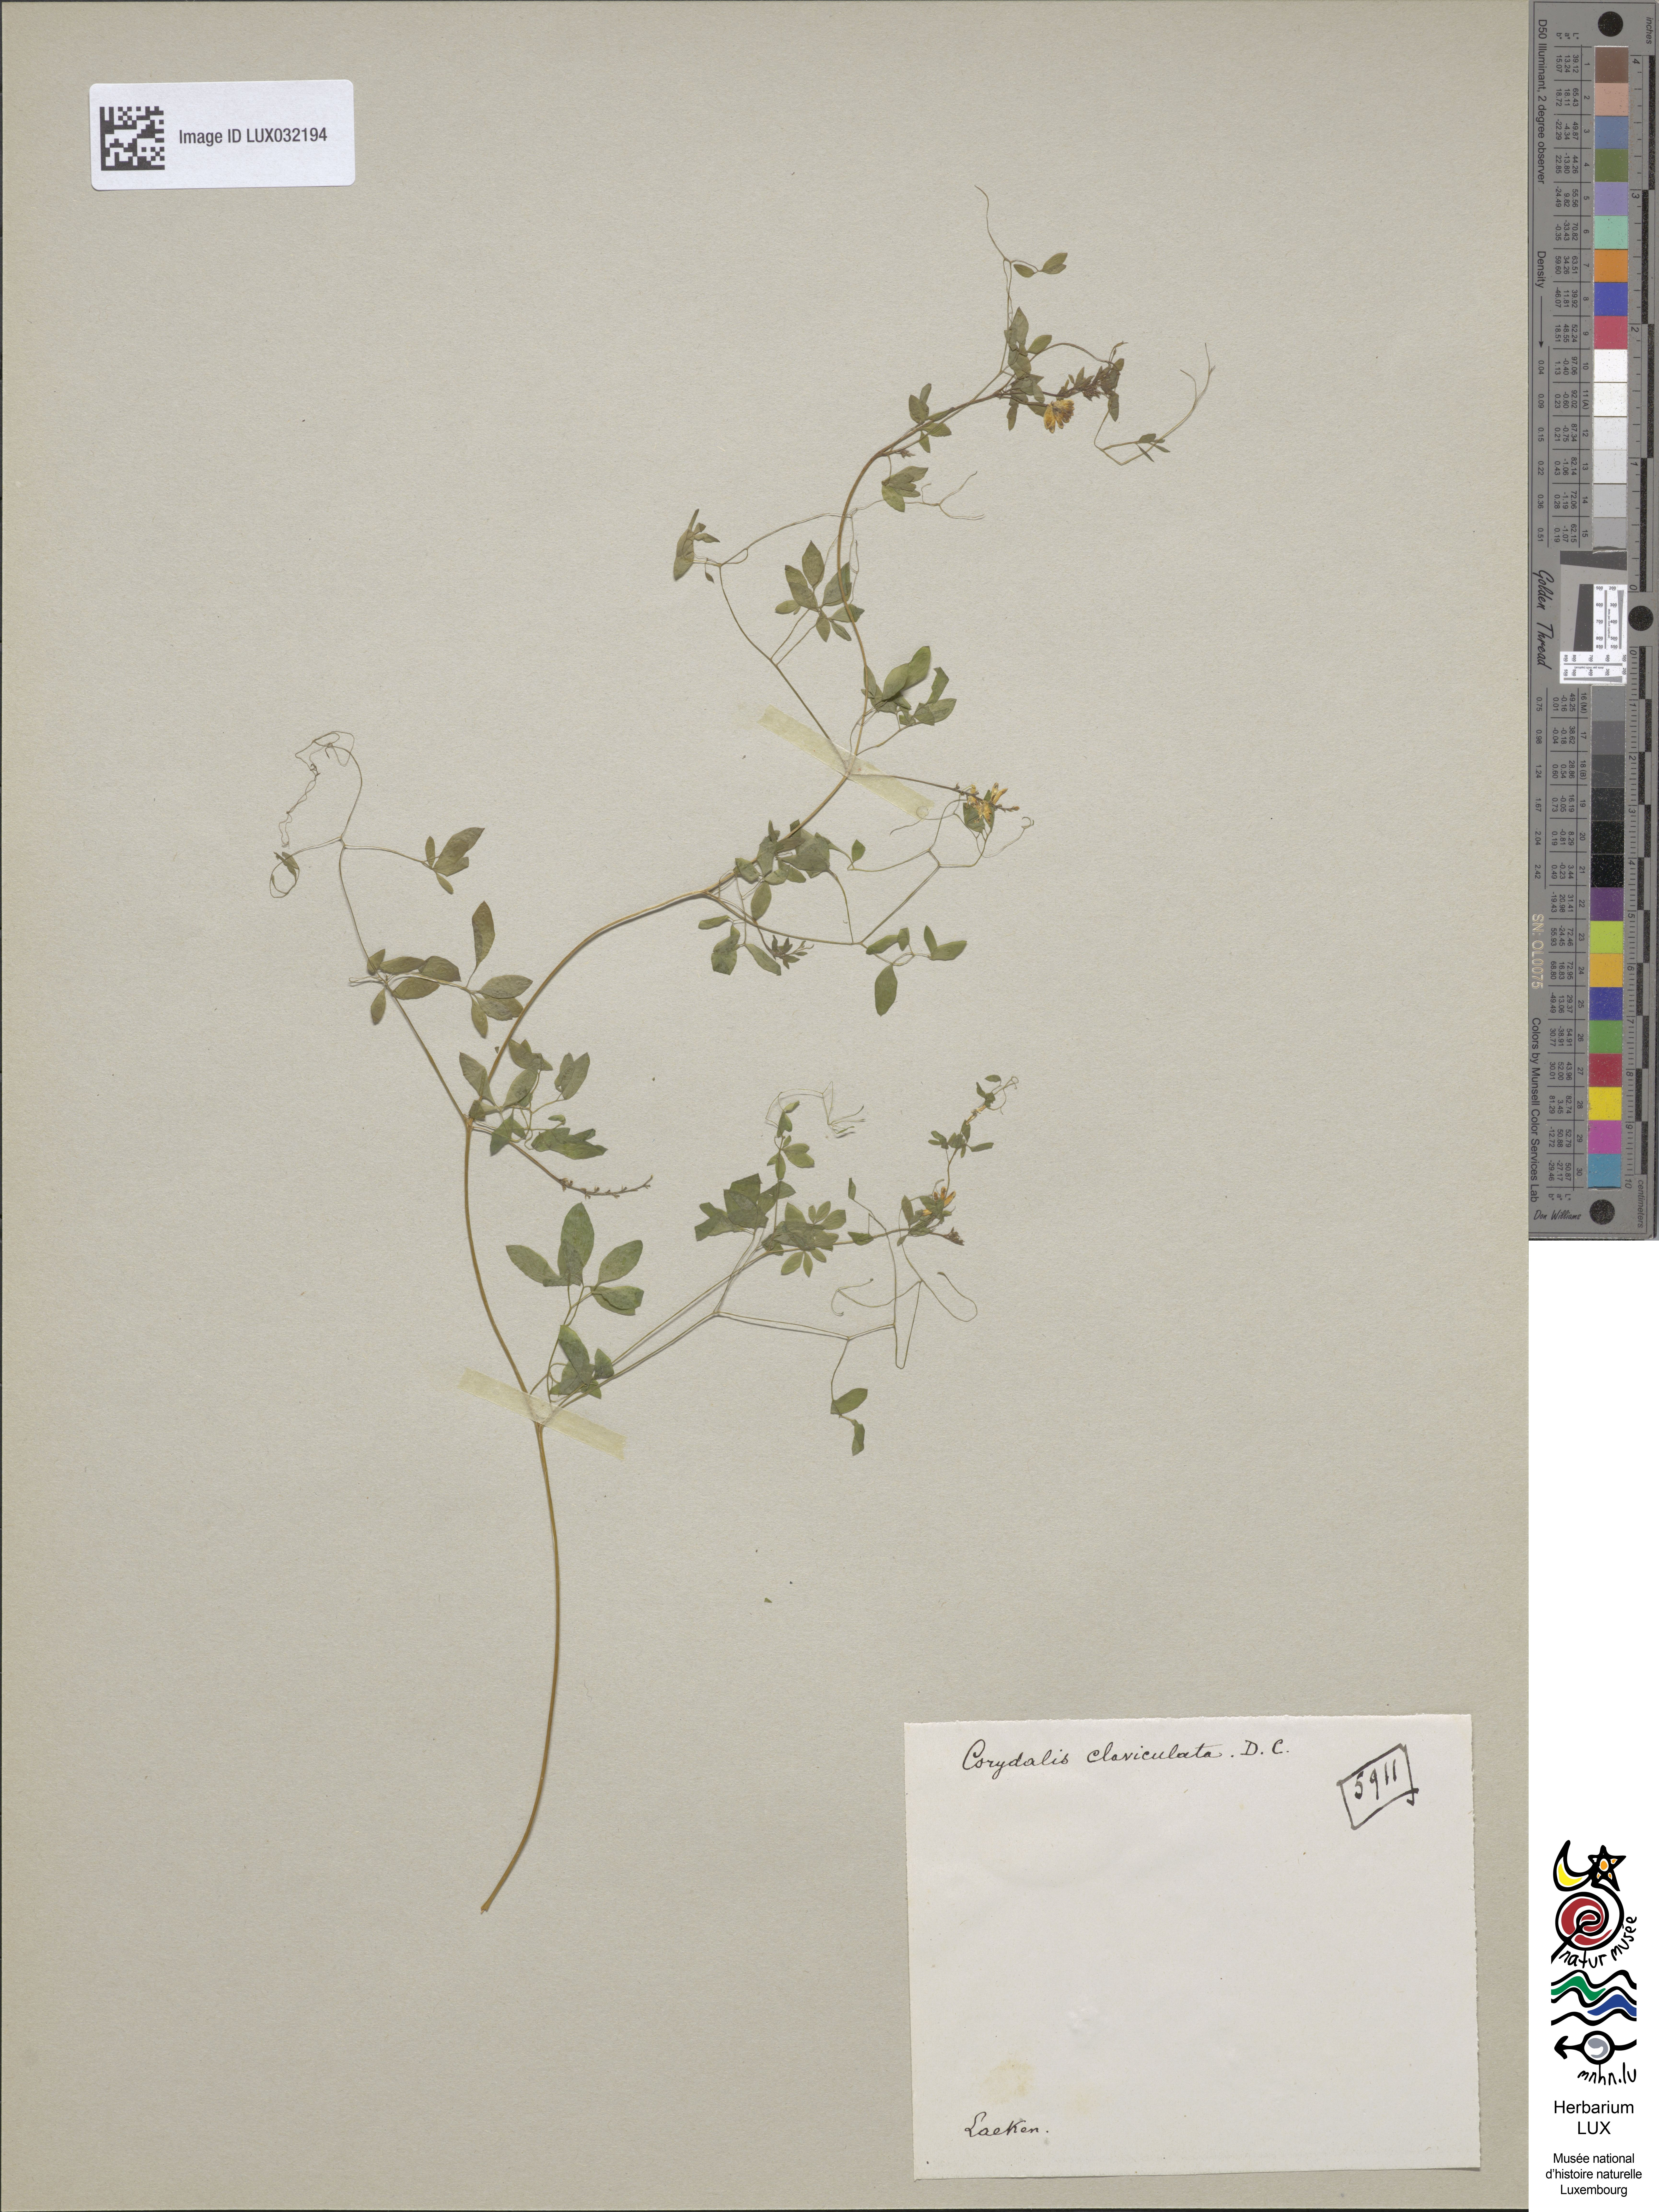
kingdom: Plantae
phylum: Tracheophyta
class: Magnoliopsida
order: Ranunculales
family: Papaveraceae
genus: Ceratocapnos
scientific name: Ceratocapnos claviculata
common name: Climbing corydalis
